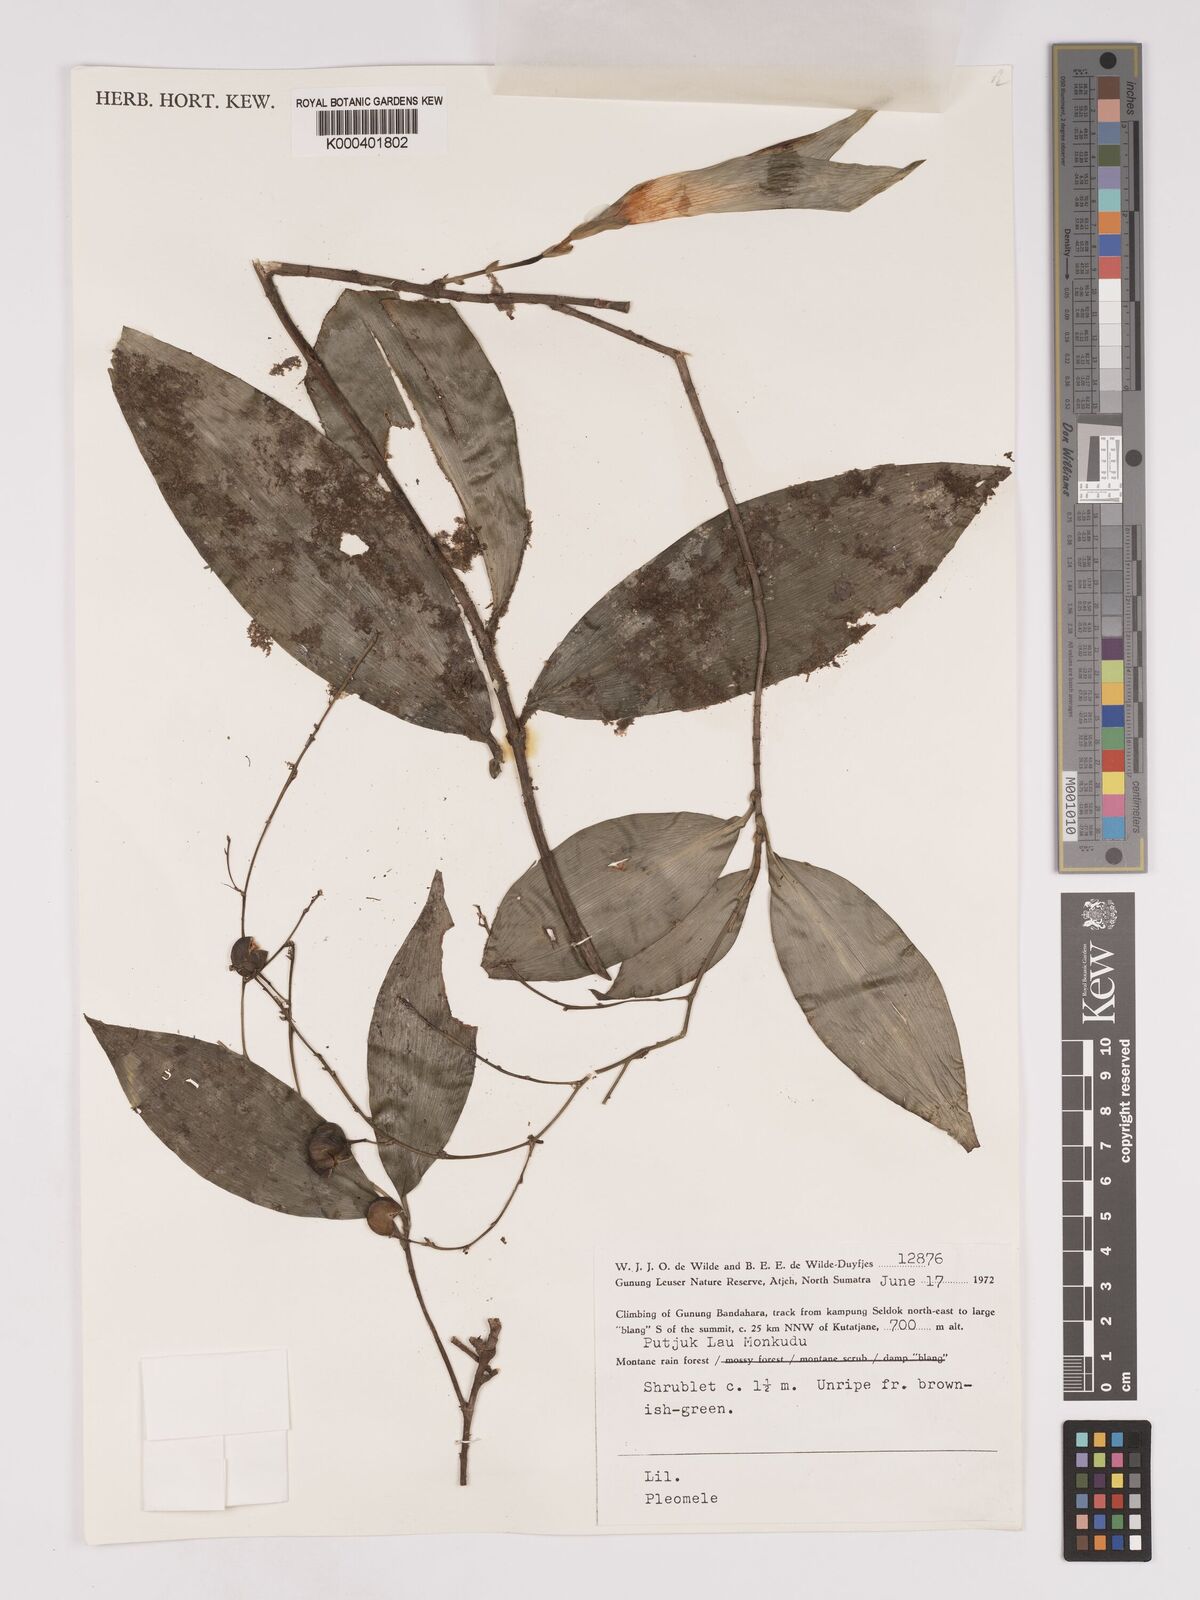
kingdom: Plantae
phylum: Tracheophyta
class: Liliopsida
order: Asparagales
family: Asparagaceae
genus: Dracaena
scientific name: Dracaena
